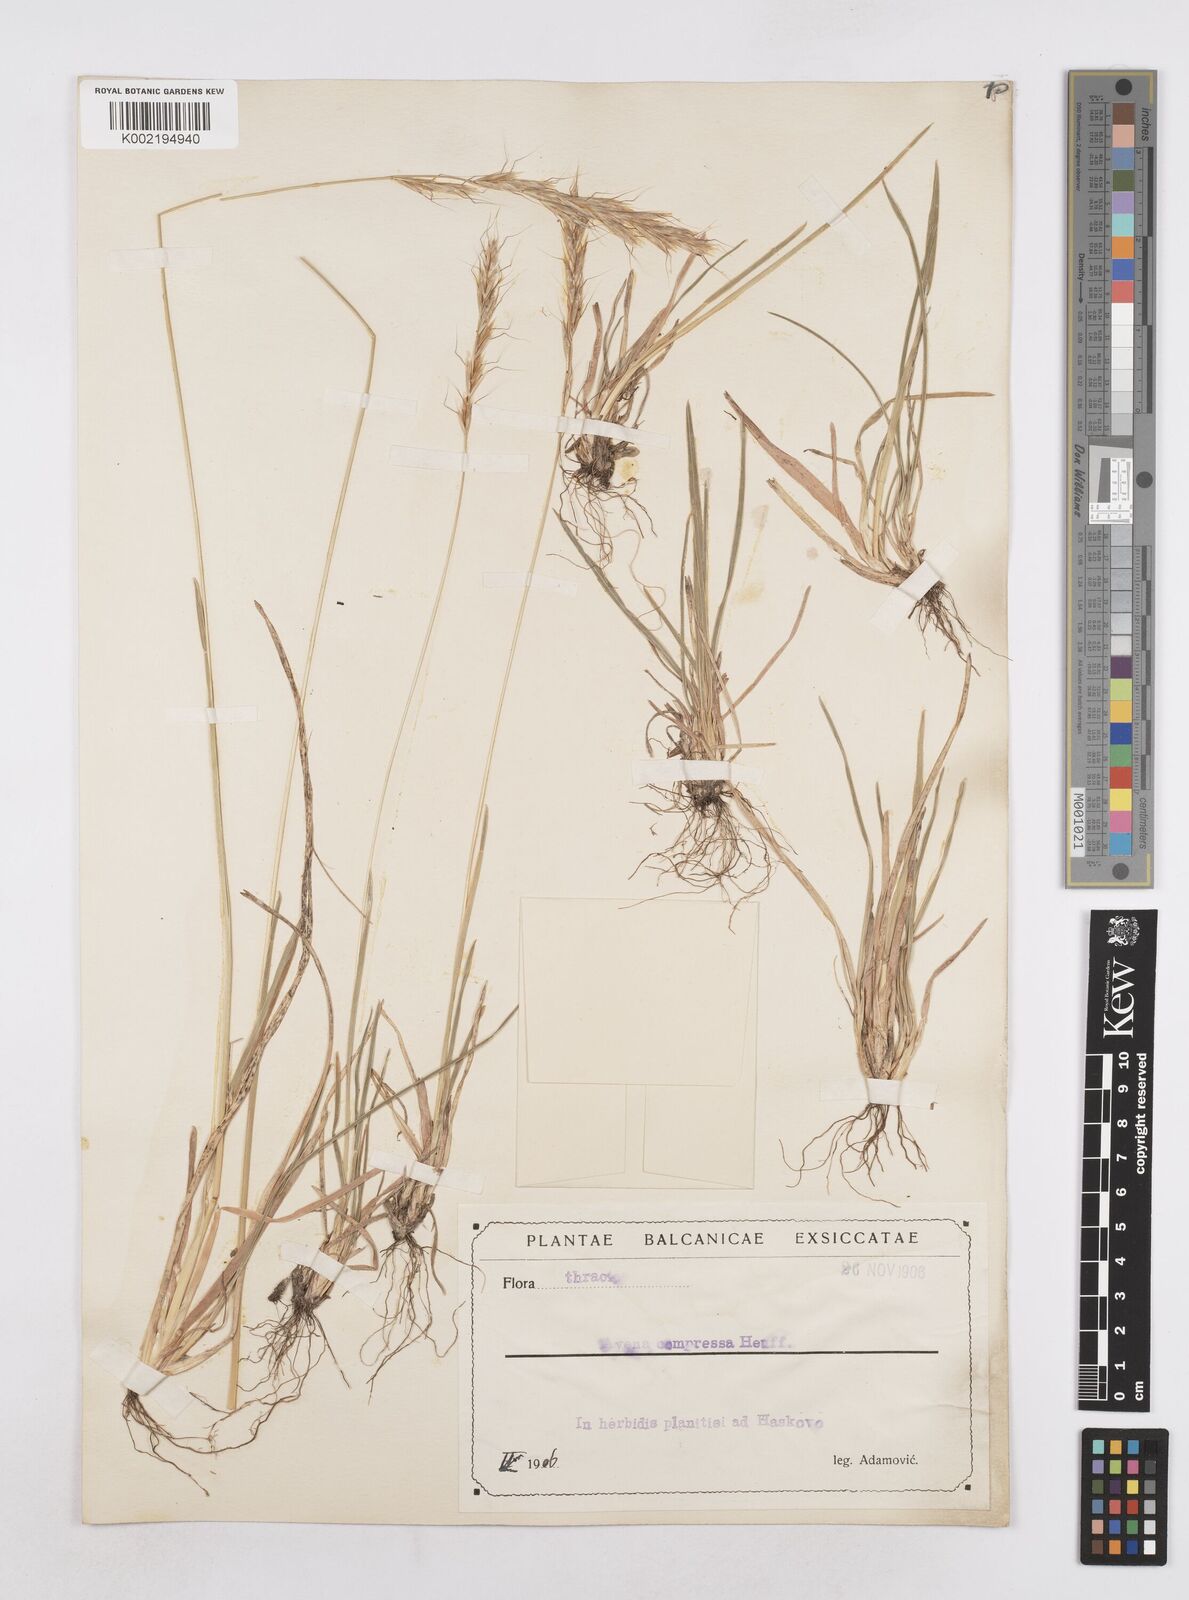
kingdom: Plantae
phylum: Tracheophyta
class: Liliopsida
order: Poales
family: Poaceae
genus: Helictochloa
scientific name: Helictochloa compressa
